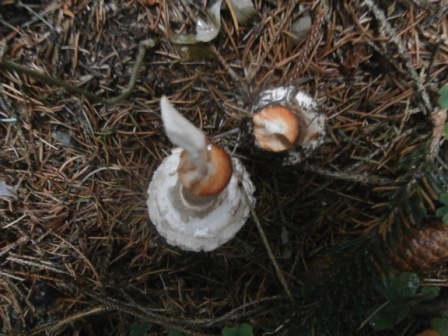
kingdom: Fungi
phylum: Basidiomycota
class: Agaricomycetes
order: Agaricales
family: Agaricaceae
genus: Chlorophyllum
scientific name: Chlorophyllum brunneum
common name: giftig rabarberhat
